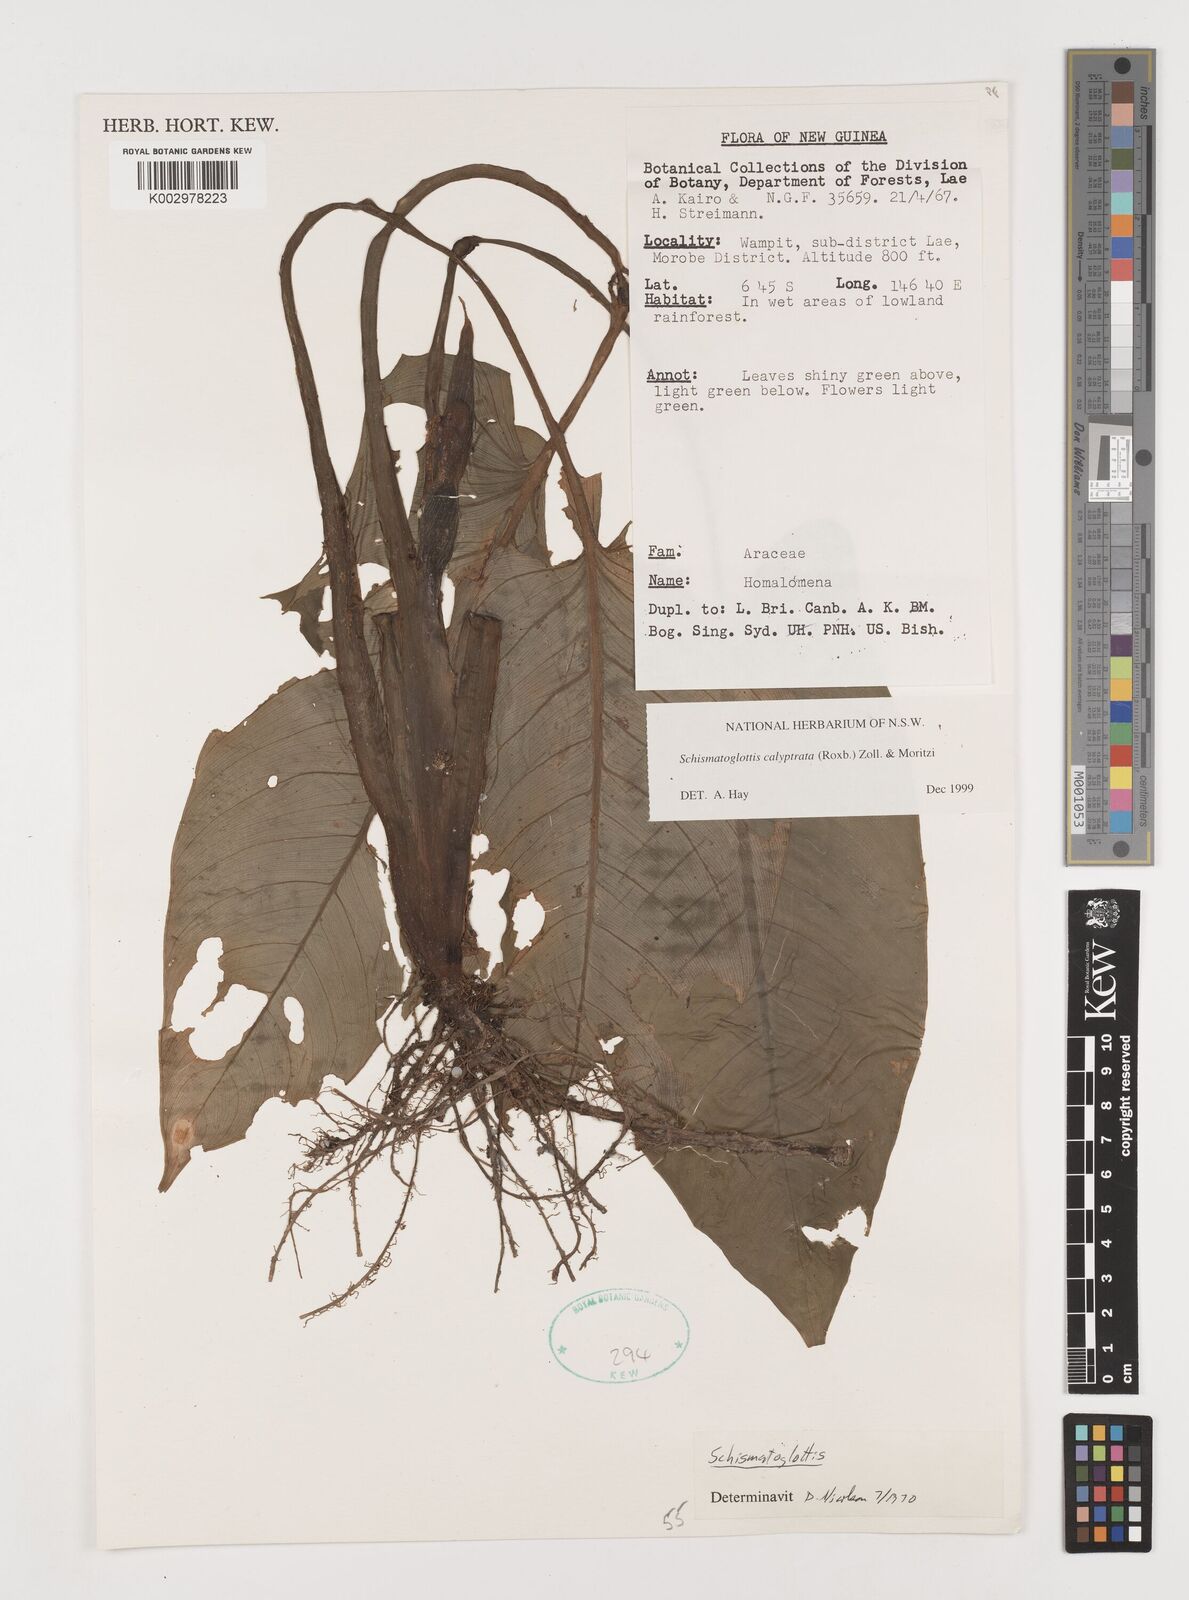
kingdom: Plantae
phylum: Tracheophyta
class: Liliopsida
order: Alismatales
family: Araceae
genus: Schismatoglottis
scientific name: Schismatoglottis calyptrata
